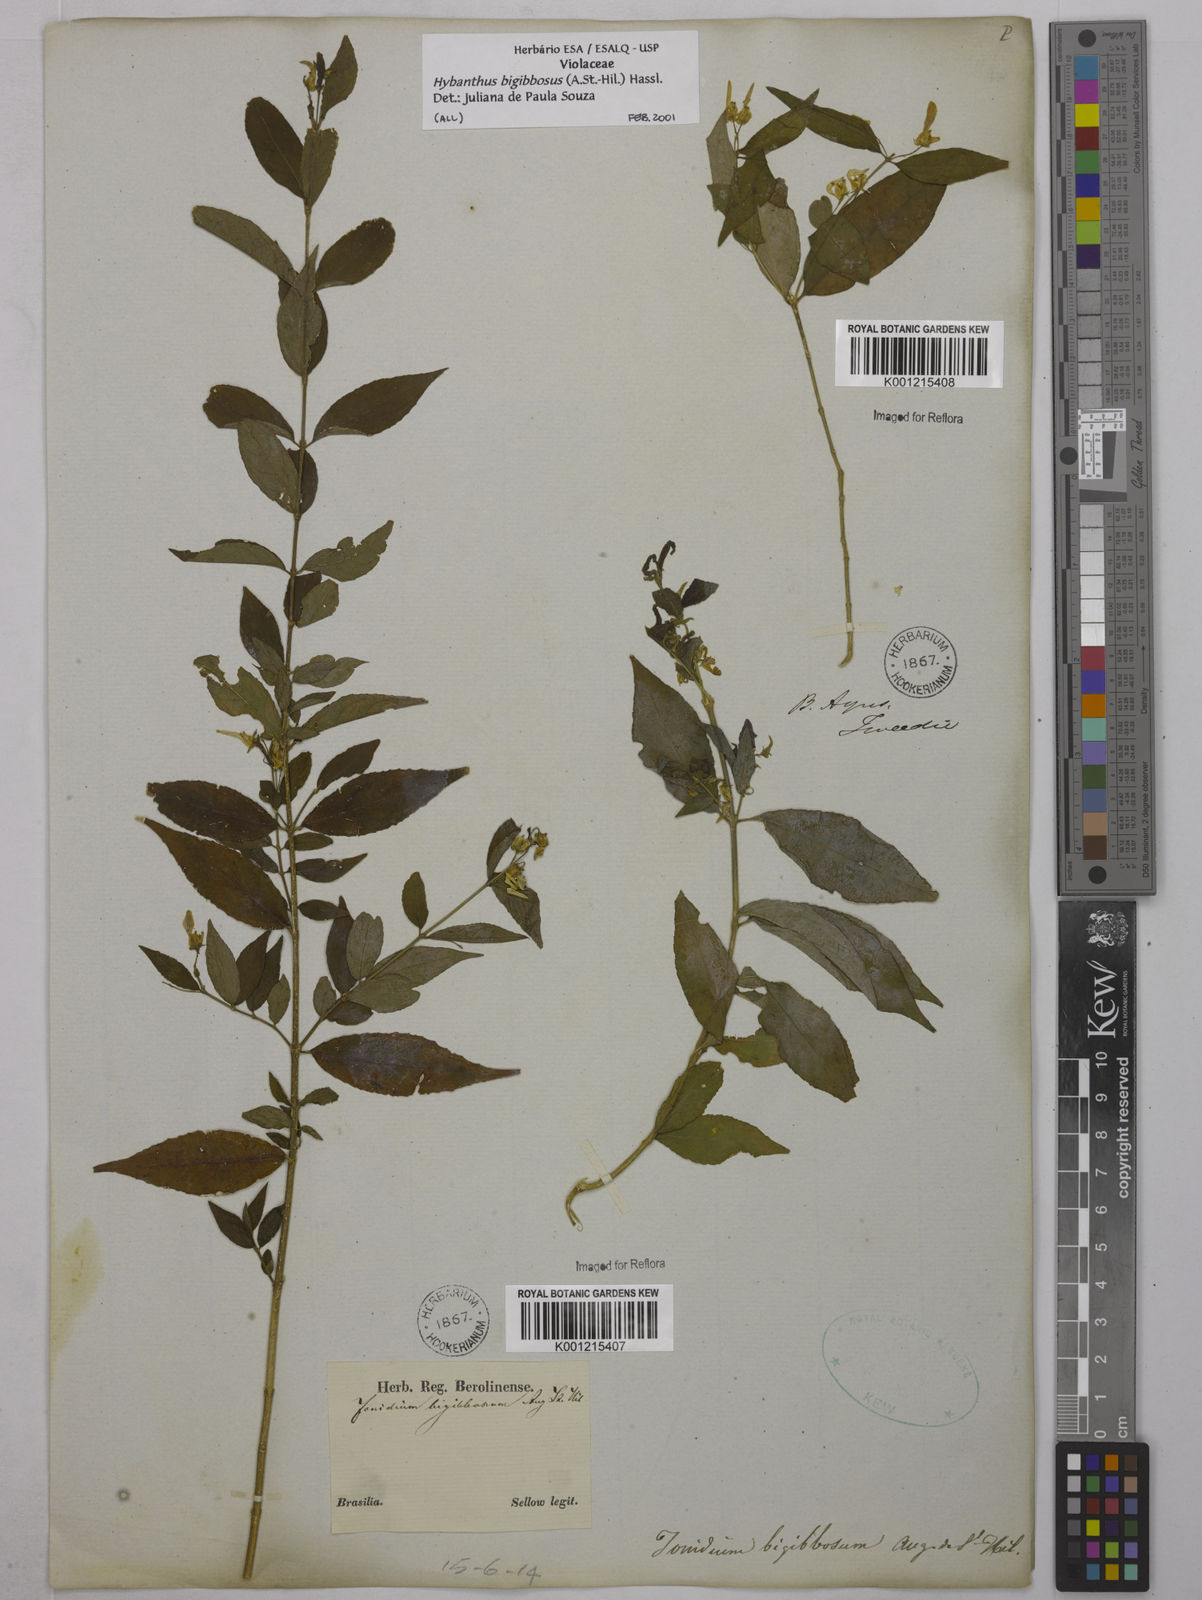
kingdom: Plantae
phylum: Tracheophyta
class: Magnoliopsida
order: Malpighiales
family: Violaceae
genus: Pombalia
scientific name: Pombalia bigibbosa
